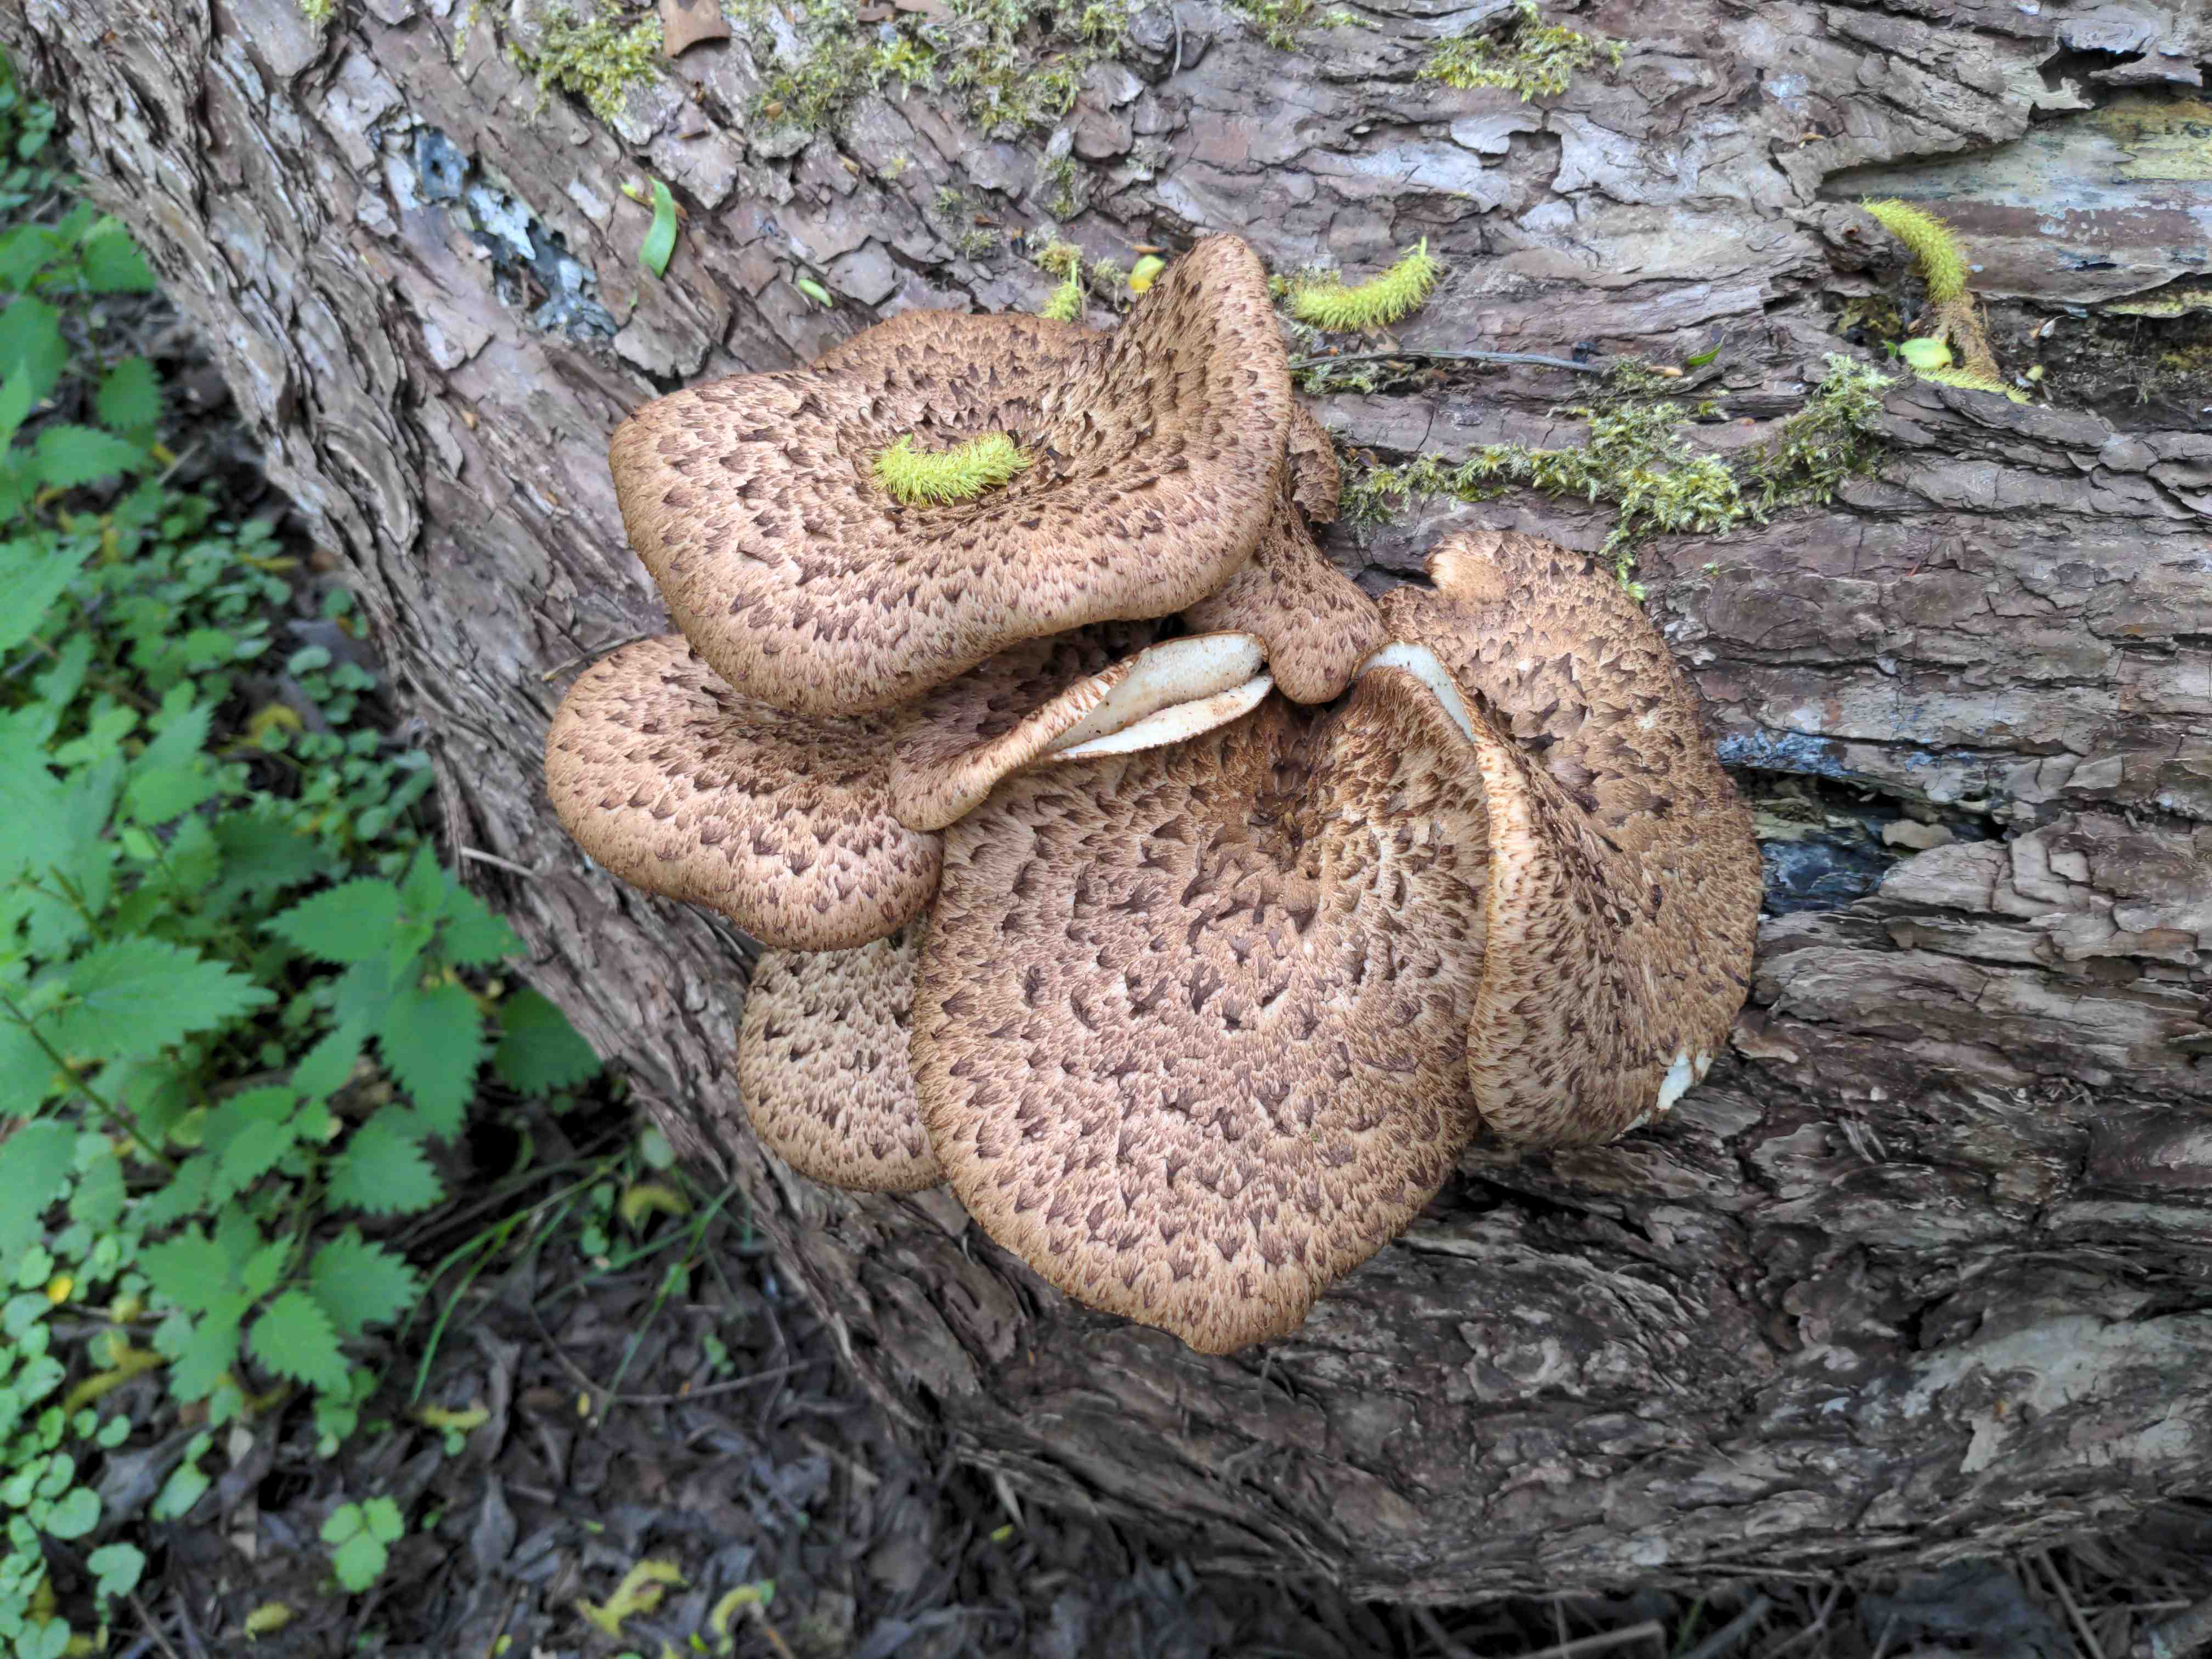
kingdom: Fungi
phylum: Basidiomycota
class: Agaricomycetes
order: Polyporales
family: Polyporaceae
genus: Cerioporus
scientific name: Cerioporus squamosus
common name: skællet stilkporesvamp
